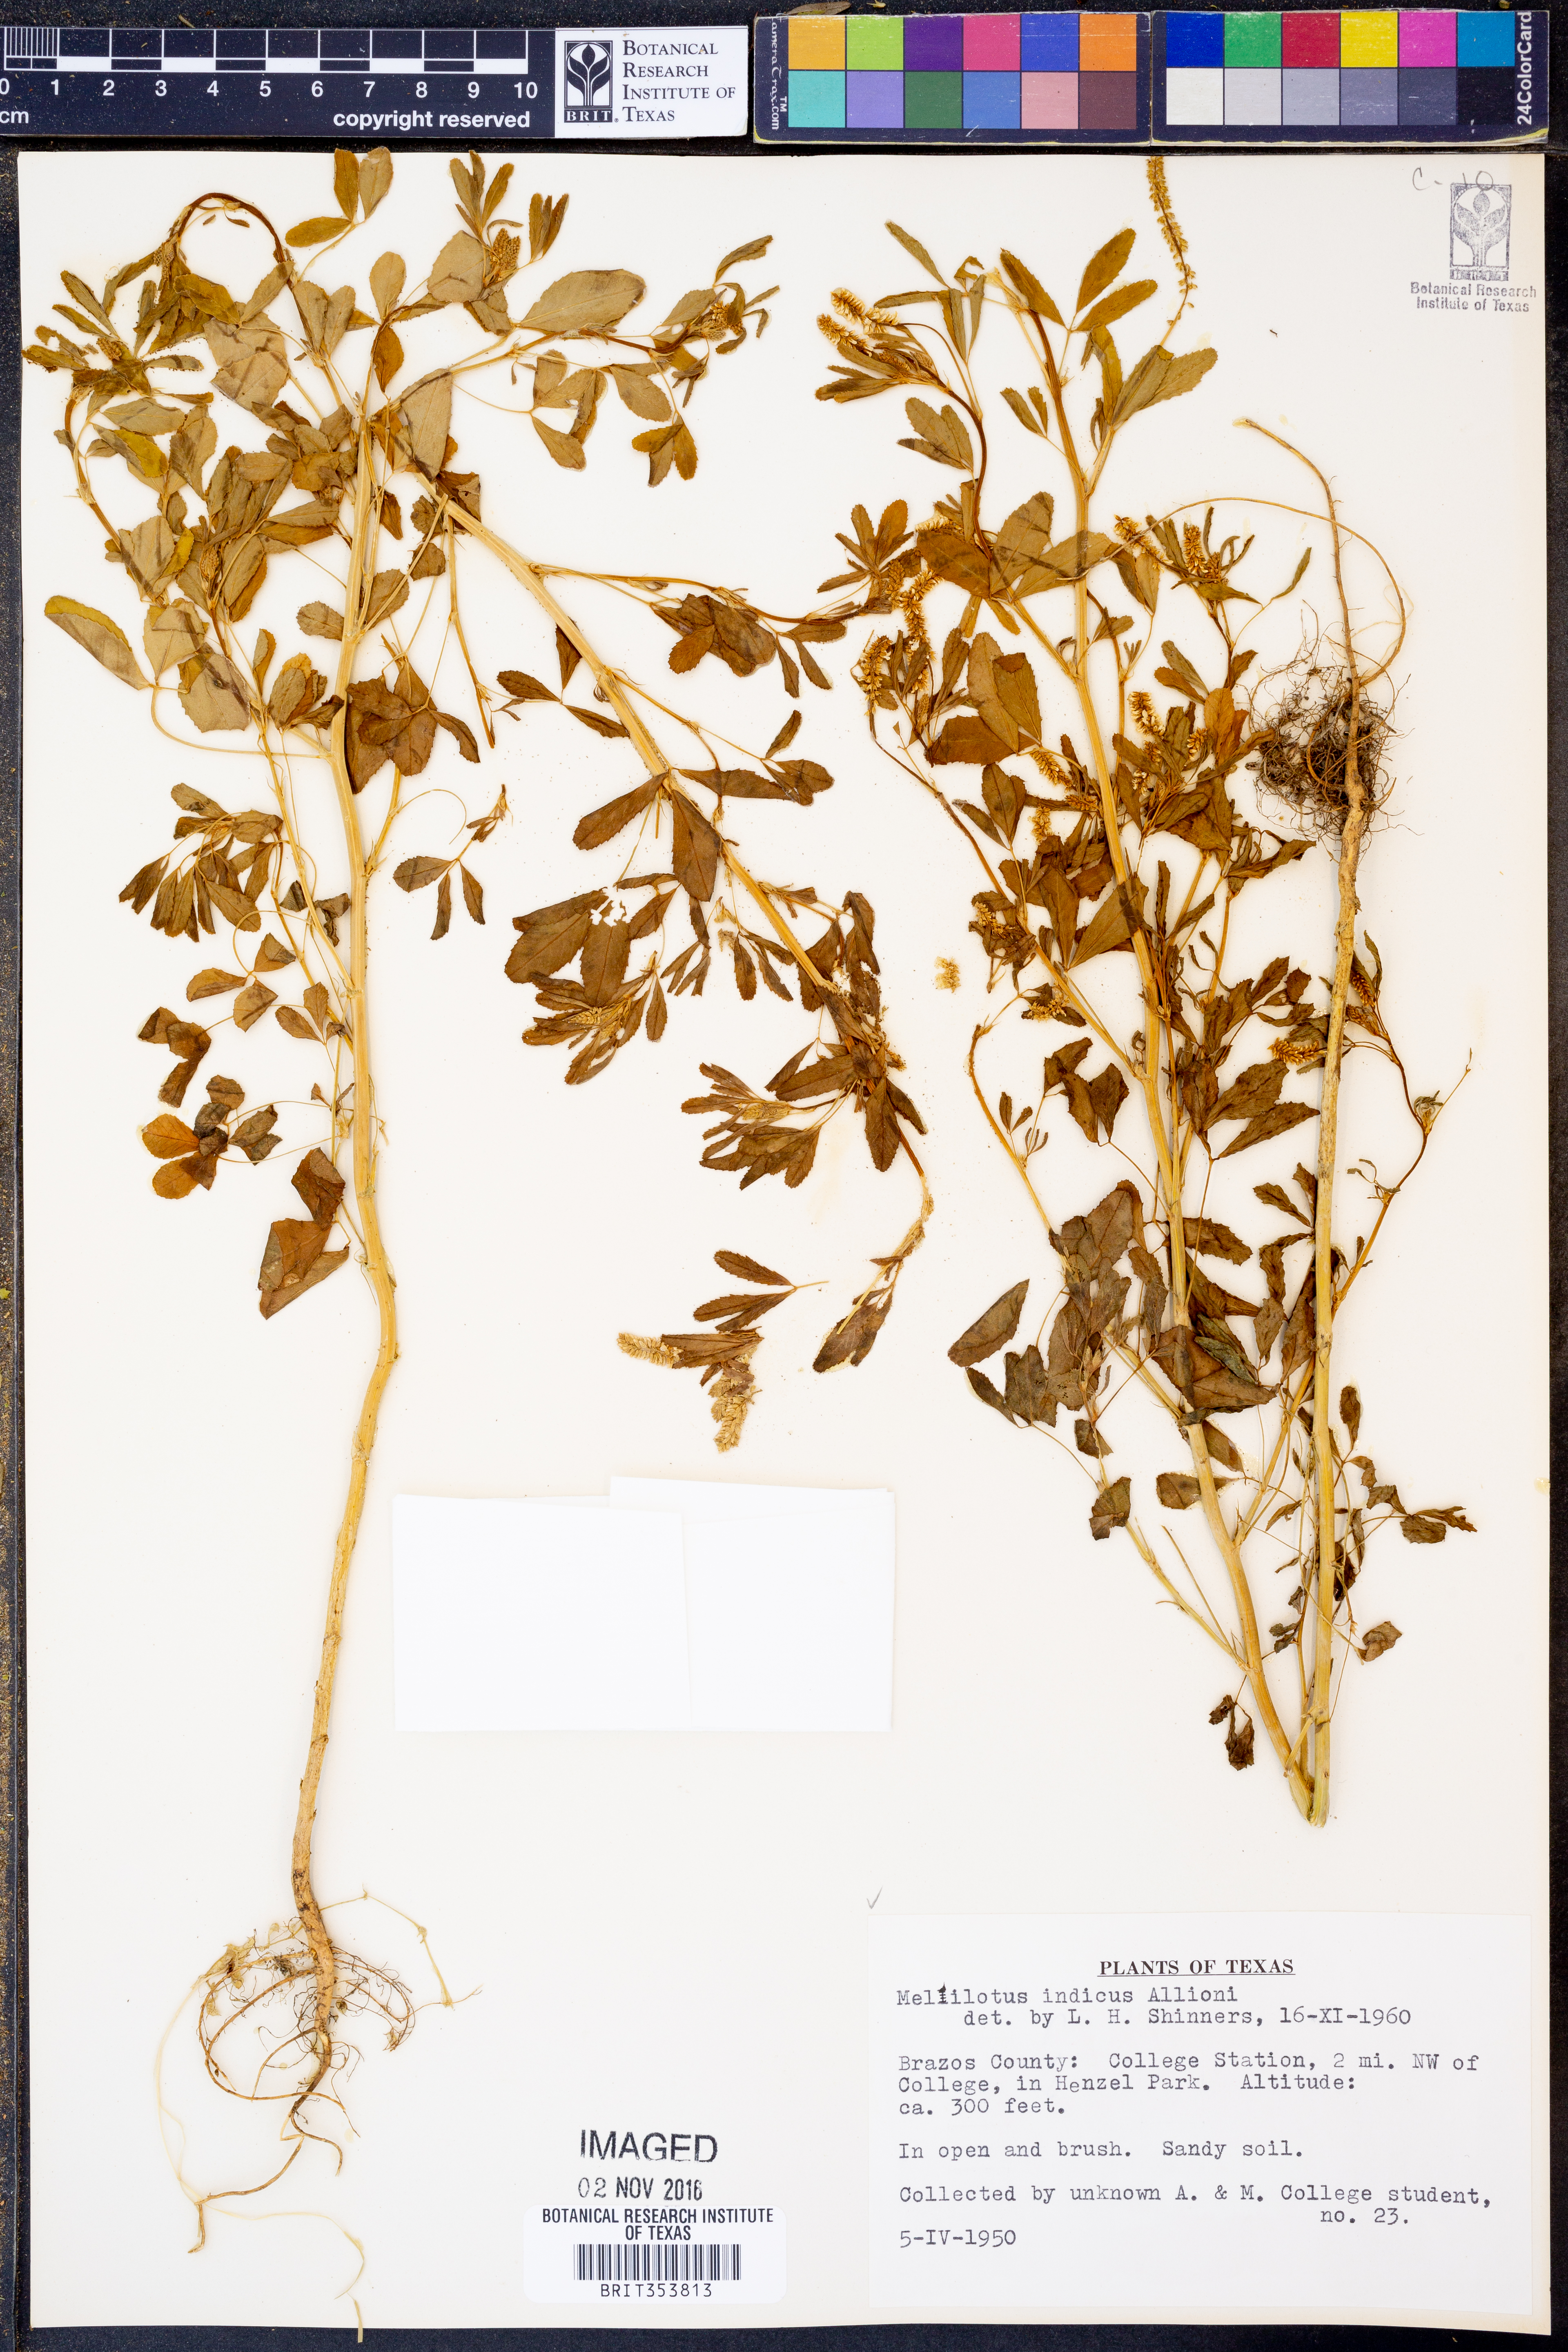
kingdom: Plantae
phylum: Tracheophyta
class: Magnoliopsida
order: Fabales
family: Fabaceae
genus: Melilotus
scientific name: Melilotus indicus
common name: Small melilot
